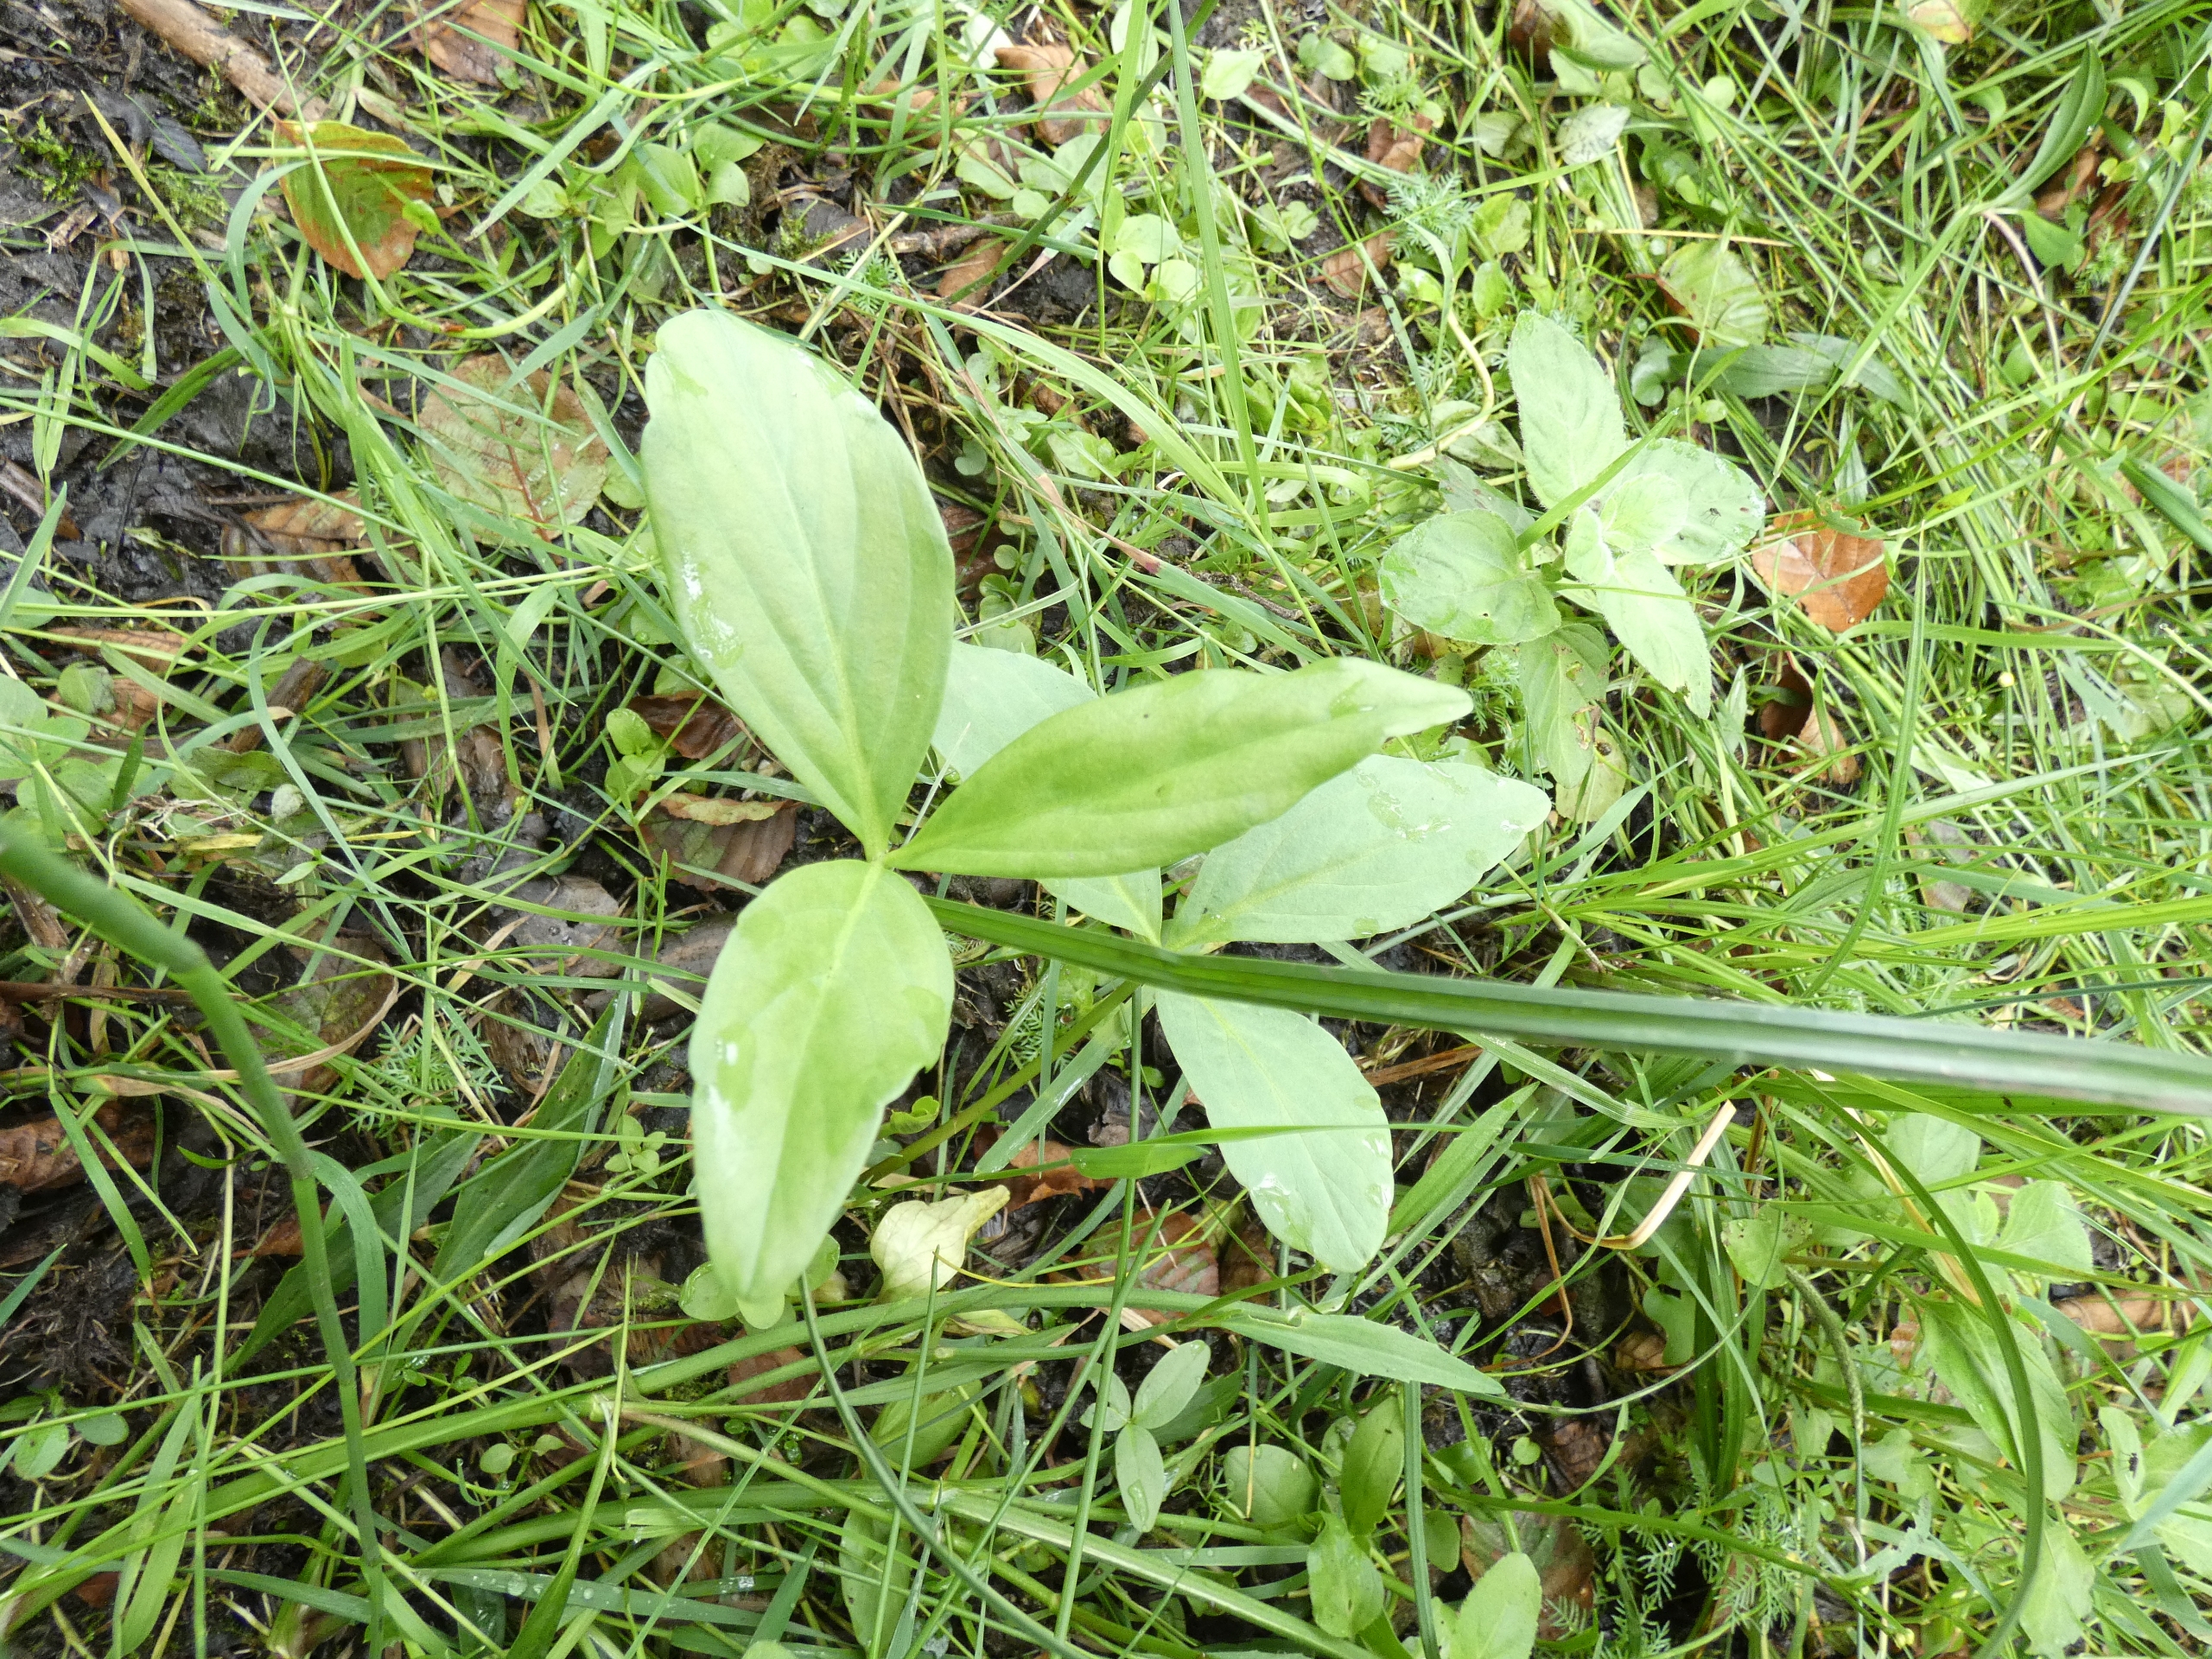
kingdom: Plantae
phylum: Tracheophyta
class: Magnoliopsida
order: Asterales
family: Menyanthaceae
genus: Menyanthes
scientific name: Menyanthes trifoliata
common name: Bukkeblad
